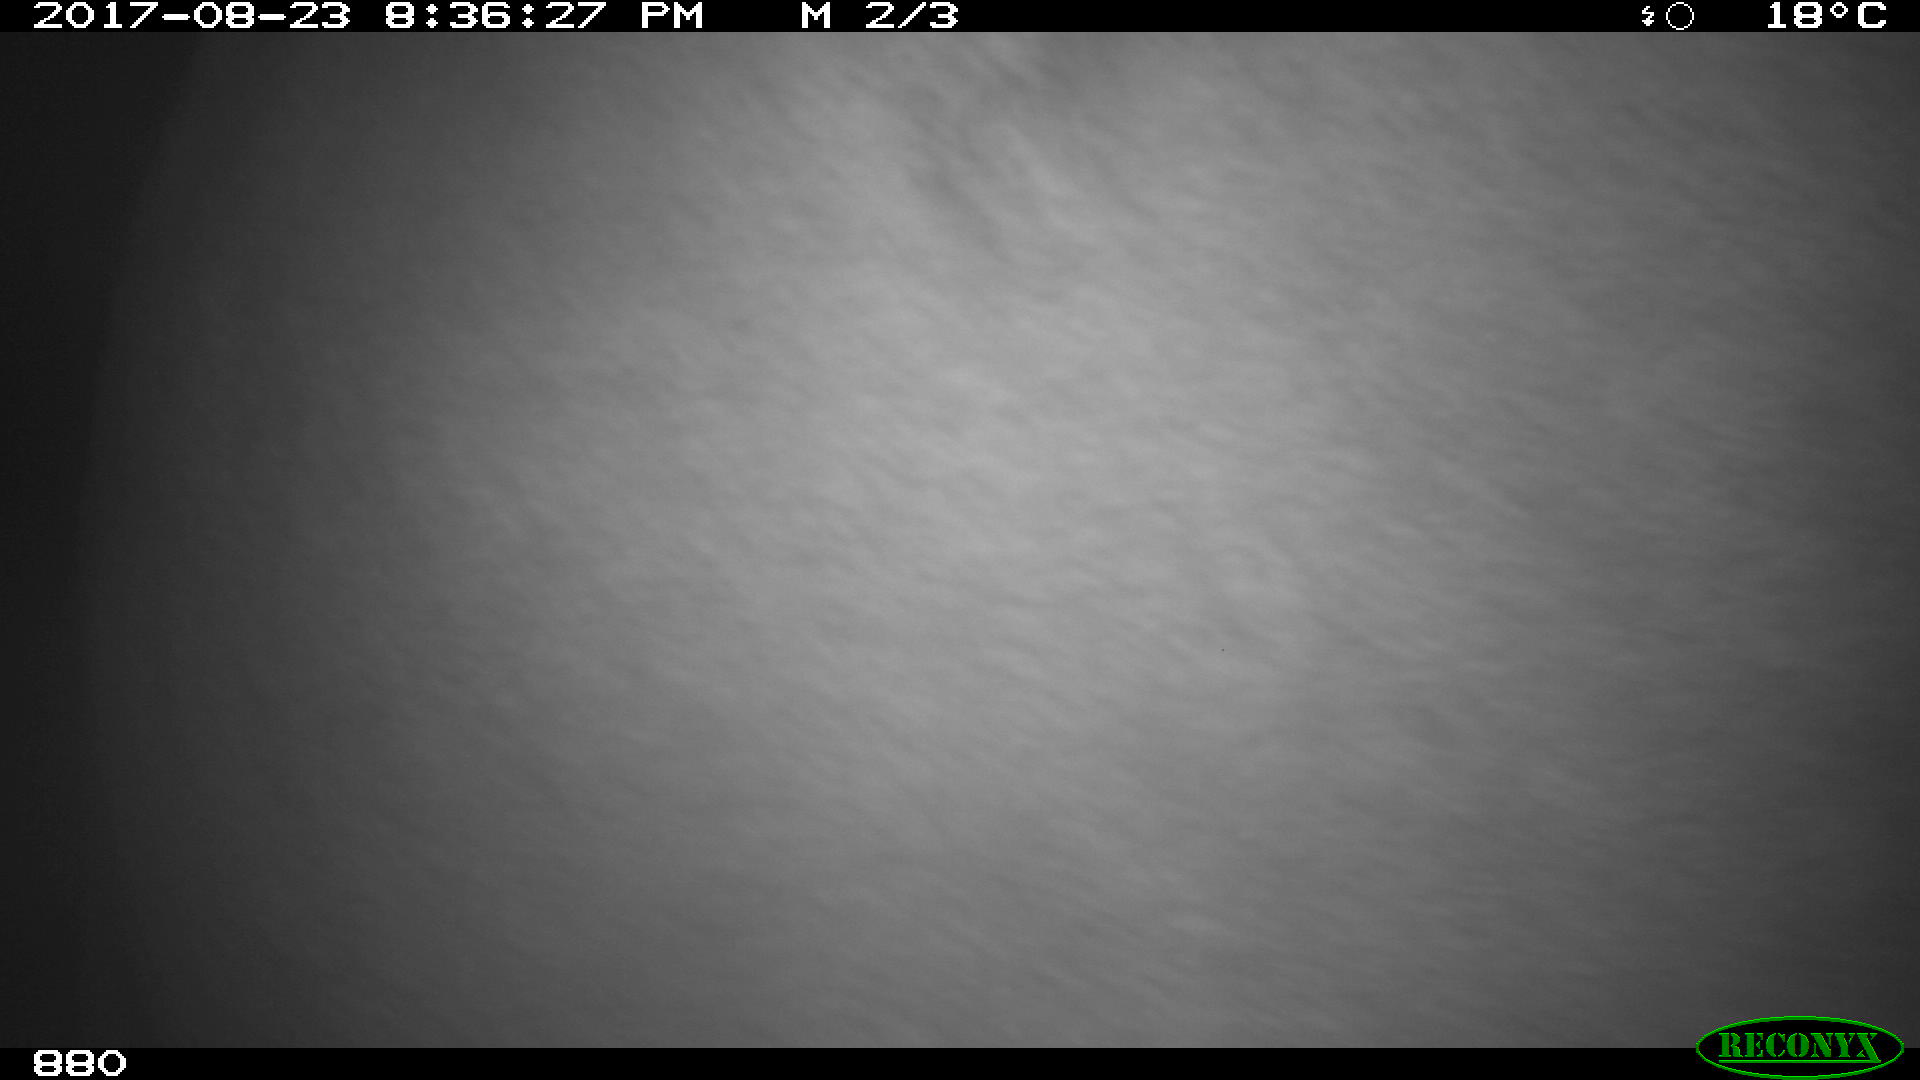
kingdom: Animalia
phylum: Chordata
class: Mammalia
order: Artiodactyla
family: Bovidae
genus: Bos
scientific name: Bos taurus
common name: Domesticated cattle
